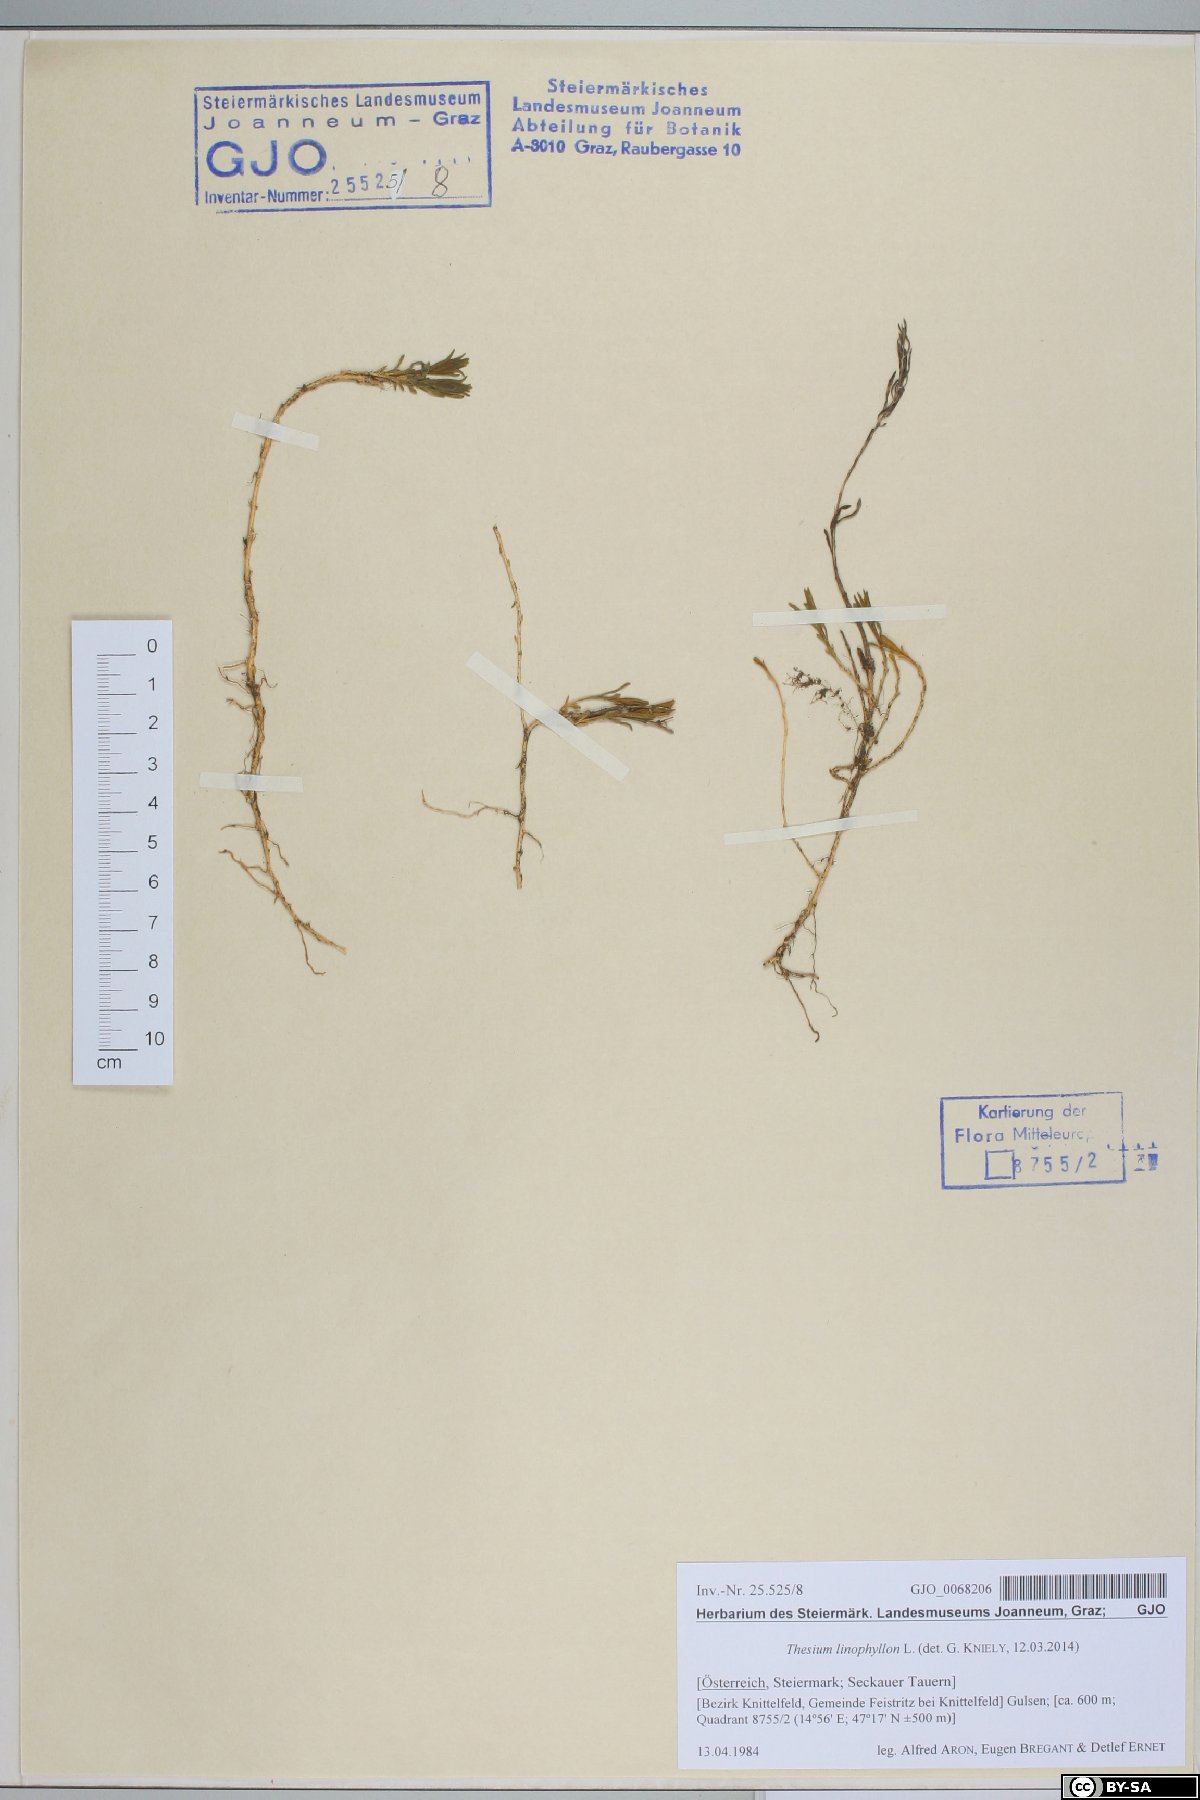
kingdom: Plantae
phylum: Tracheophyta
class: Magnoliopsida
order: Santalales
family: Thesiaceae
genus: Thesium
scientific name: Thesium linophyllon
